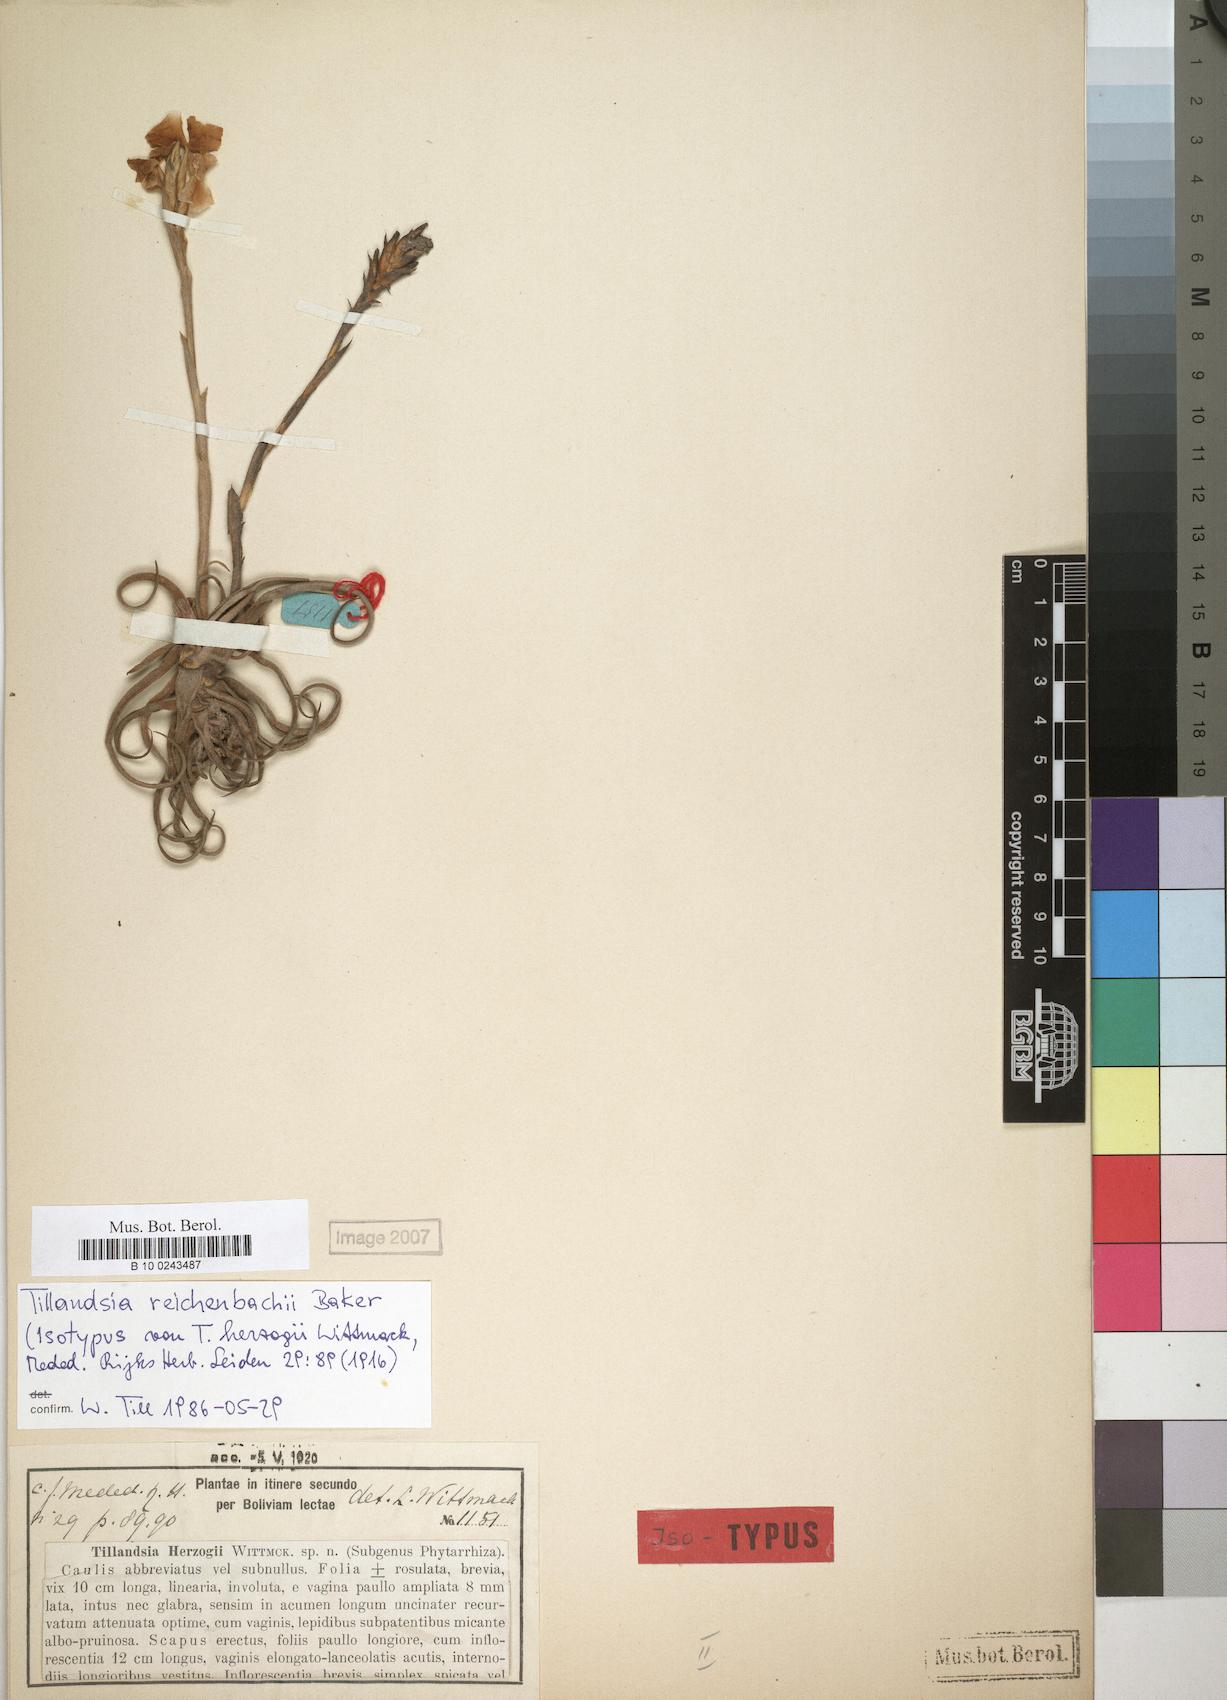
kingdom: Plantae
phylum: Tracheophyta
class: Liliopsida
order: Poales
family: Bromeliaceae
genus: Tillandsia
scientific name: Tillandsia reichenbachii
